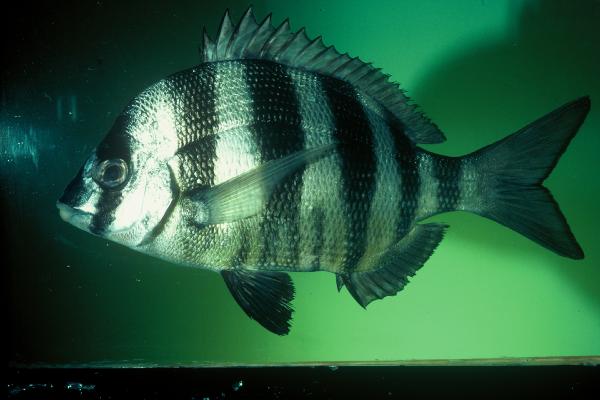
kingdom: Animalia
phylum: Chordata
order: Perciformes
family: Sparidae
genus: Diplodus
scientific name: Diplodus hottentotus
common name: Zebra
